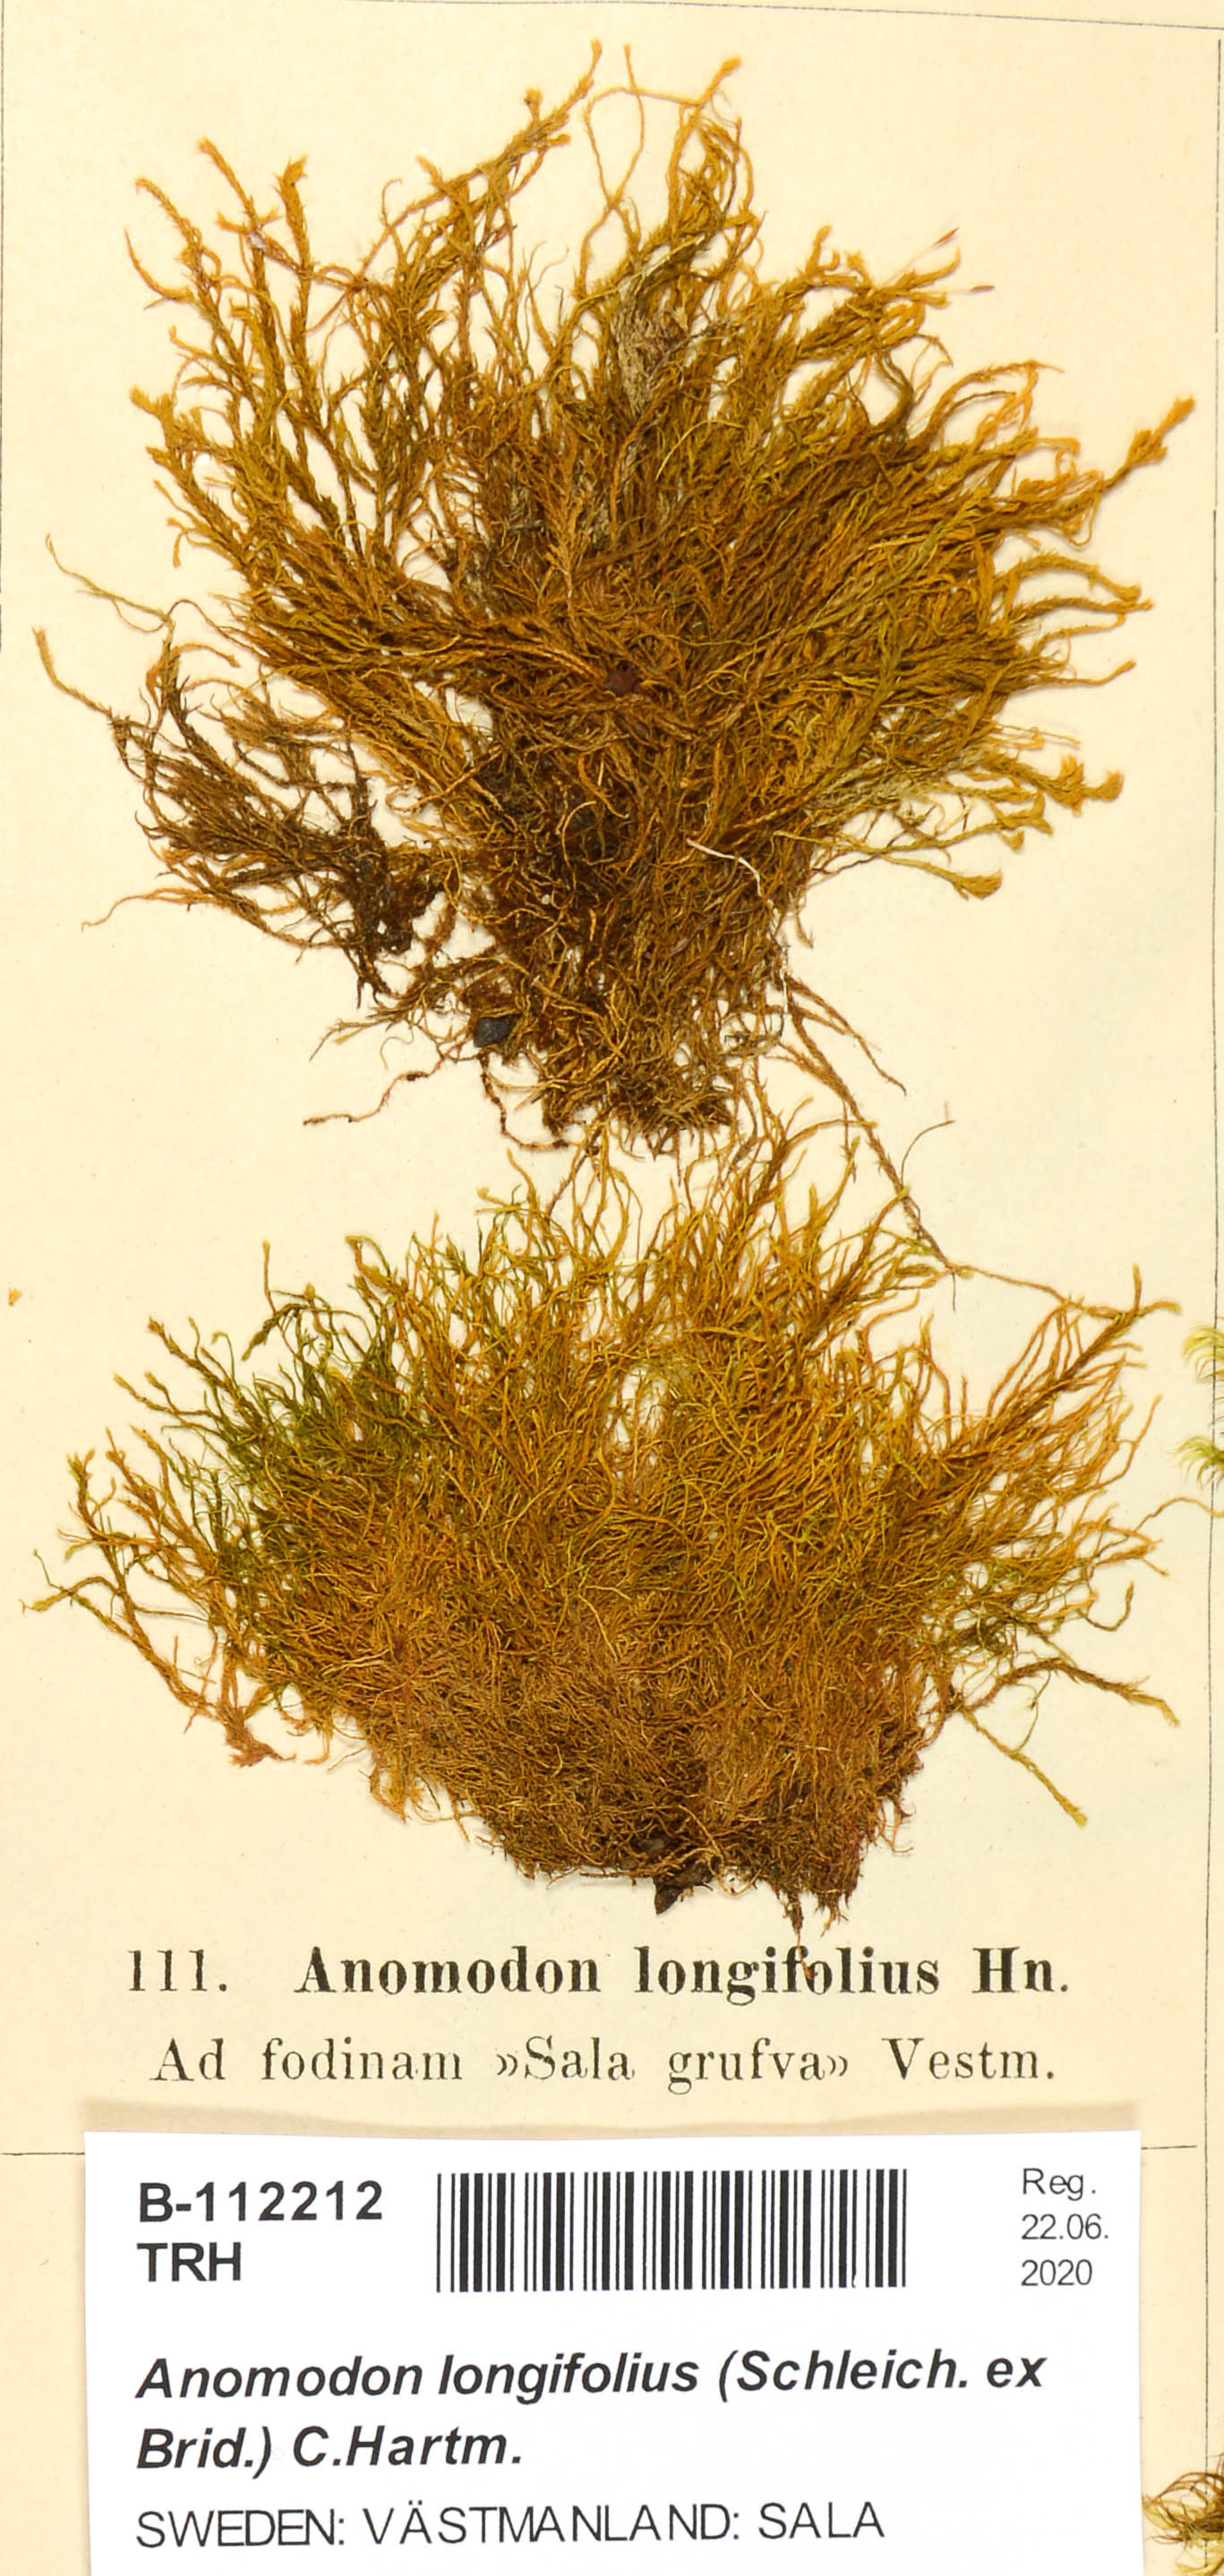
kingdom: Plantae
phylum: Bryophyta
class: Bryopsida
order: Hypnales
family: Anomodontaceae
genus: Anomodontella
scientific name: Anomodontella longifolia
